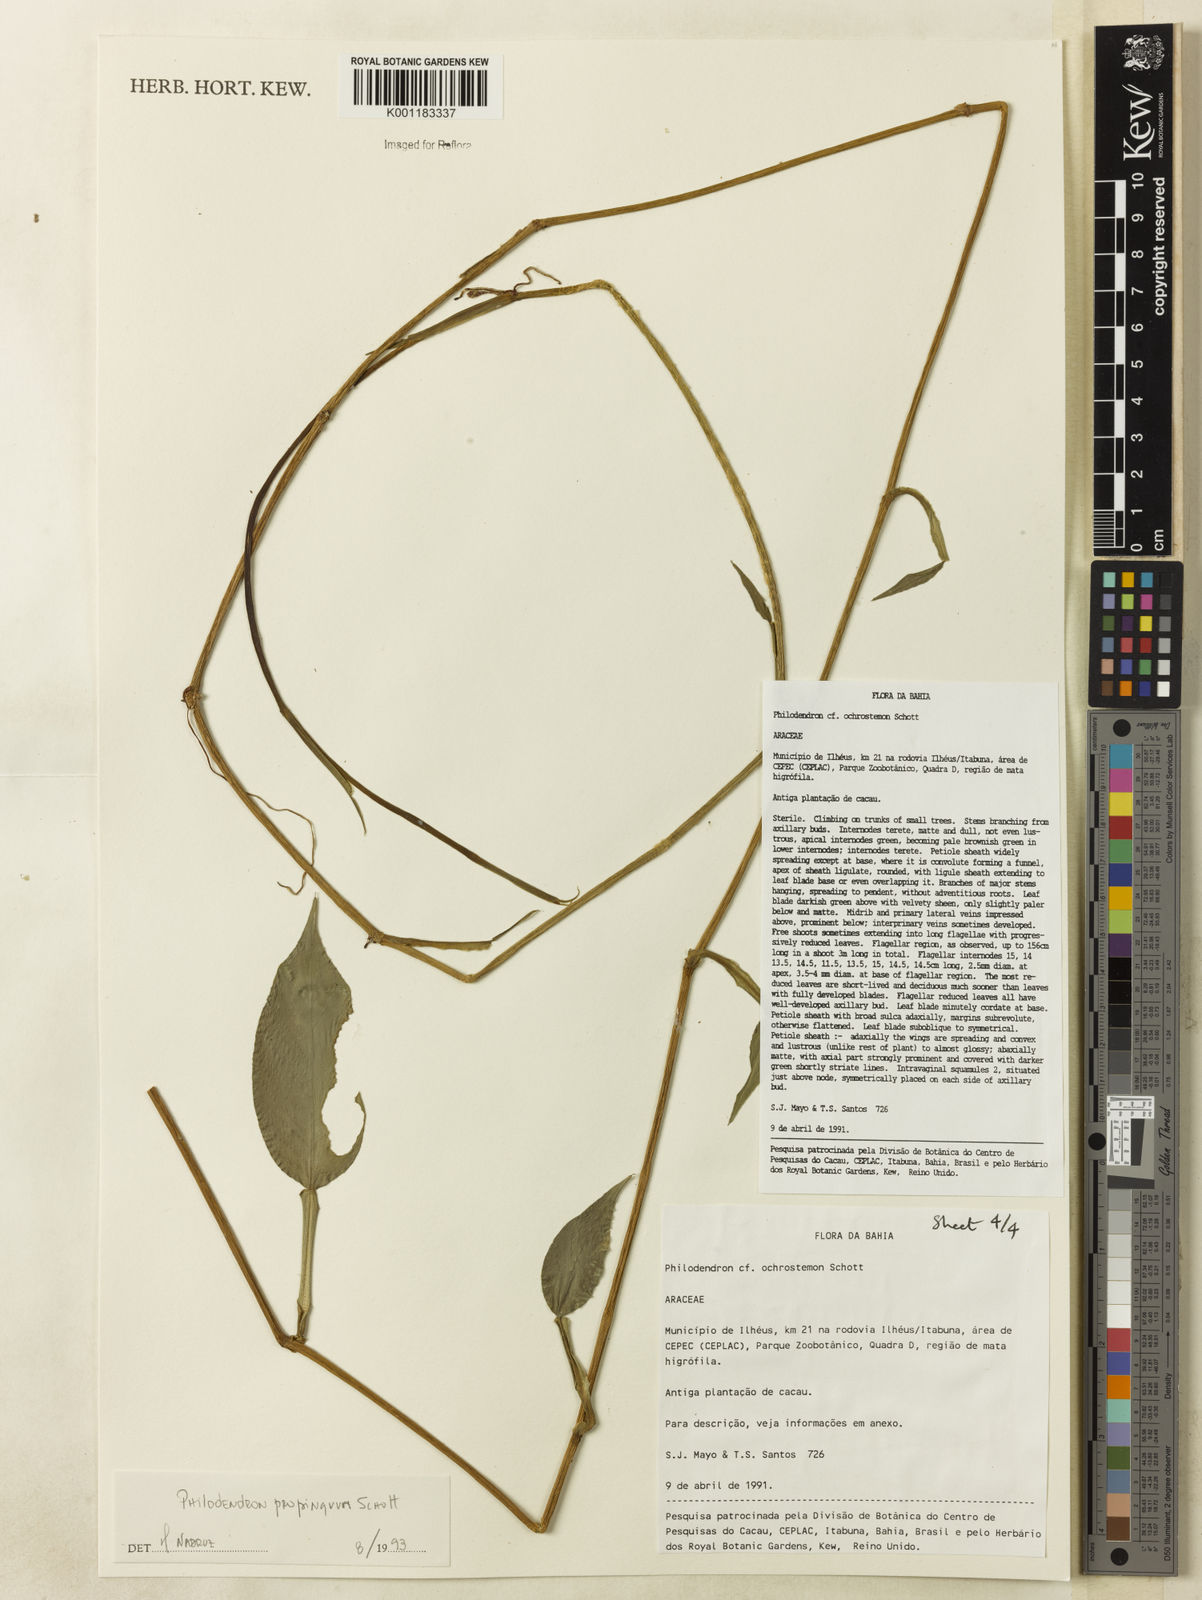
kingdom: Plantae
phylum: Tracheophyta
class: Liliopsida
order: Alismatales
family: Araceae
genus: Philodendron
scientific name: Philodendron propinquum
